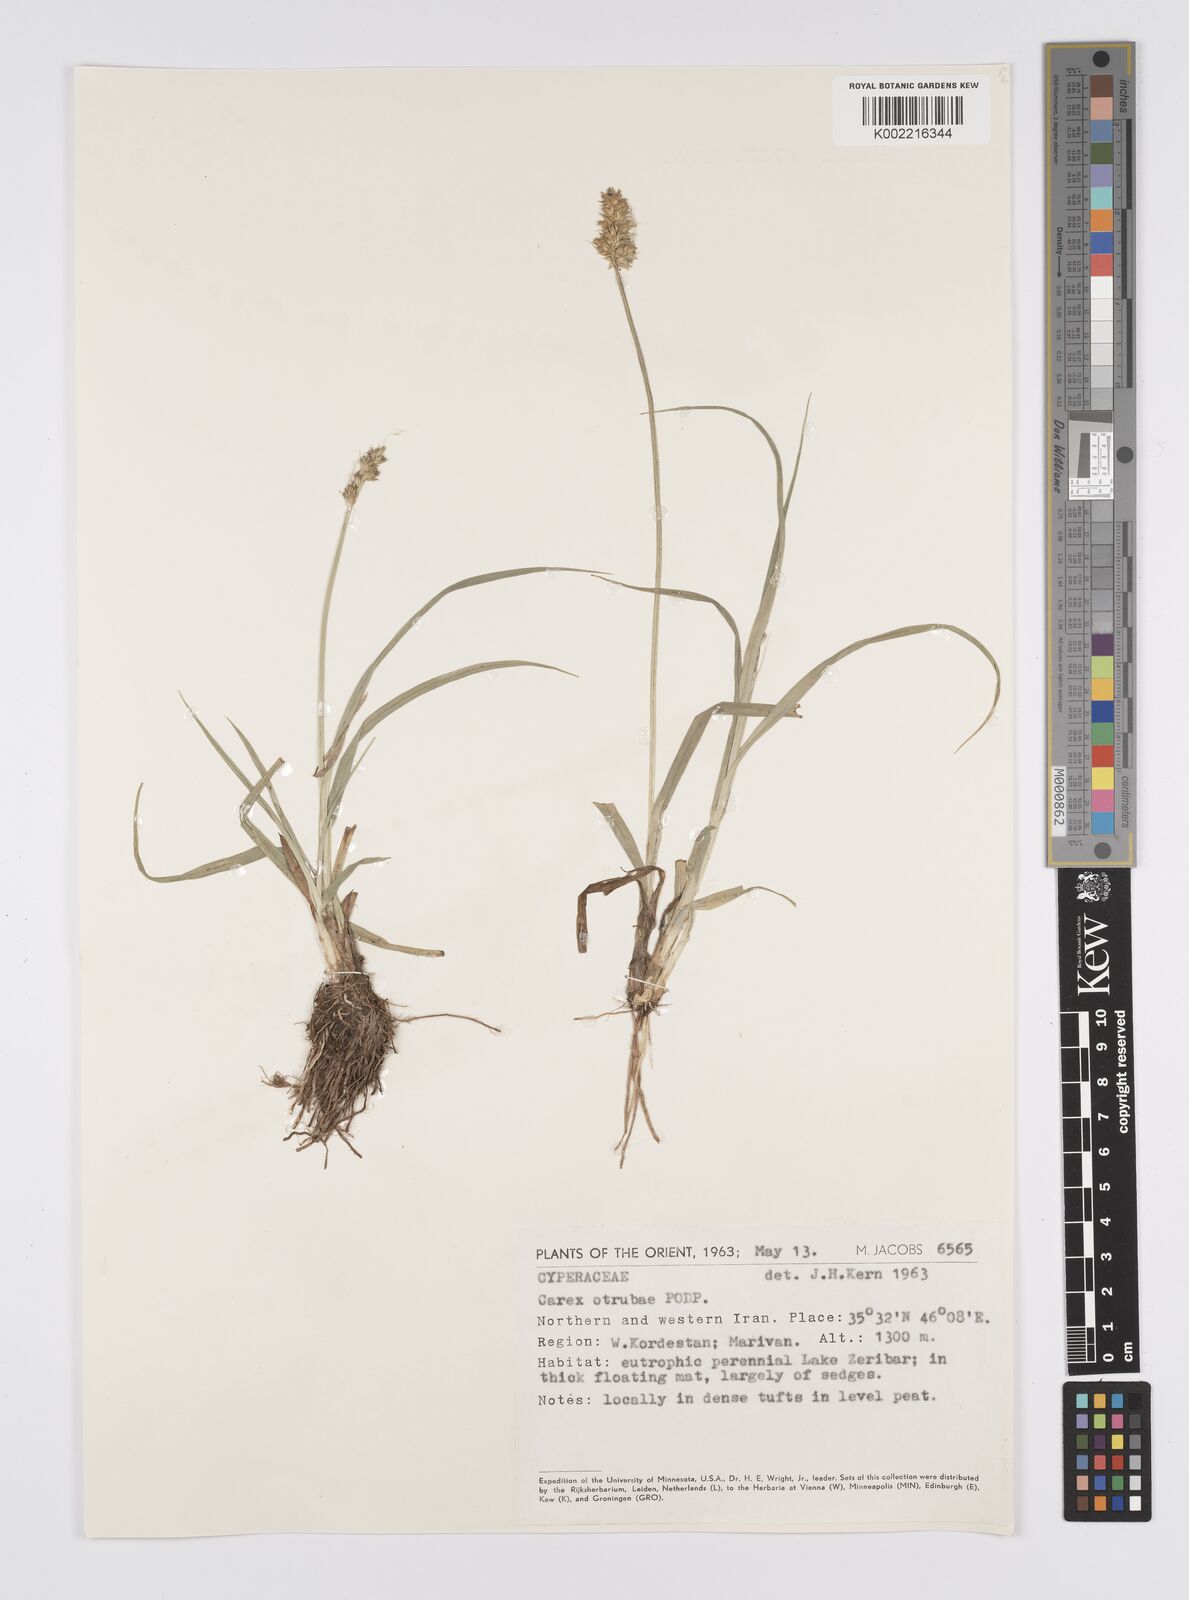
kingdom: Plantae
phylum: Tracheophyta
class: Liliopsida
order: Poales
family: Cyperaceae
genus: Carex
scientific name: Carex otrubae
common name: False fox-sedge
